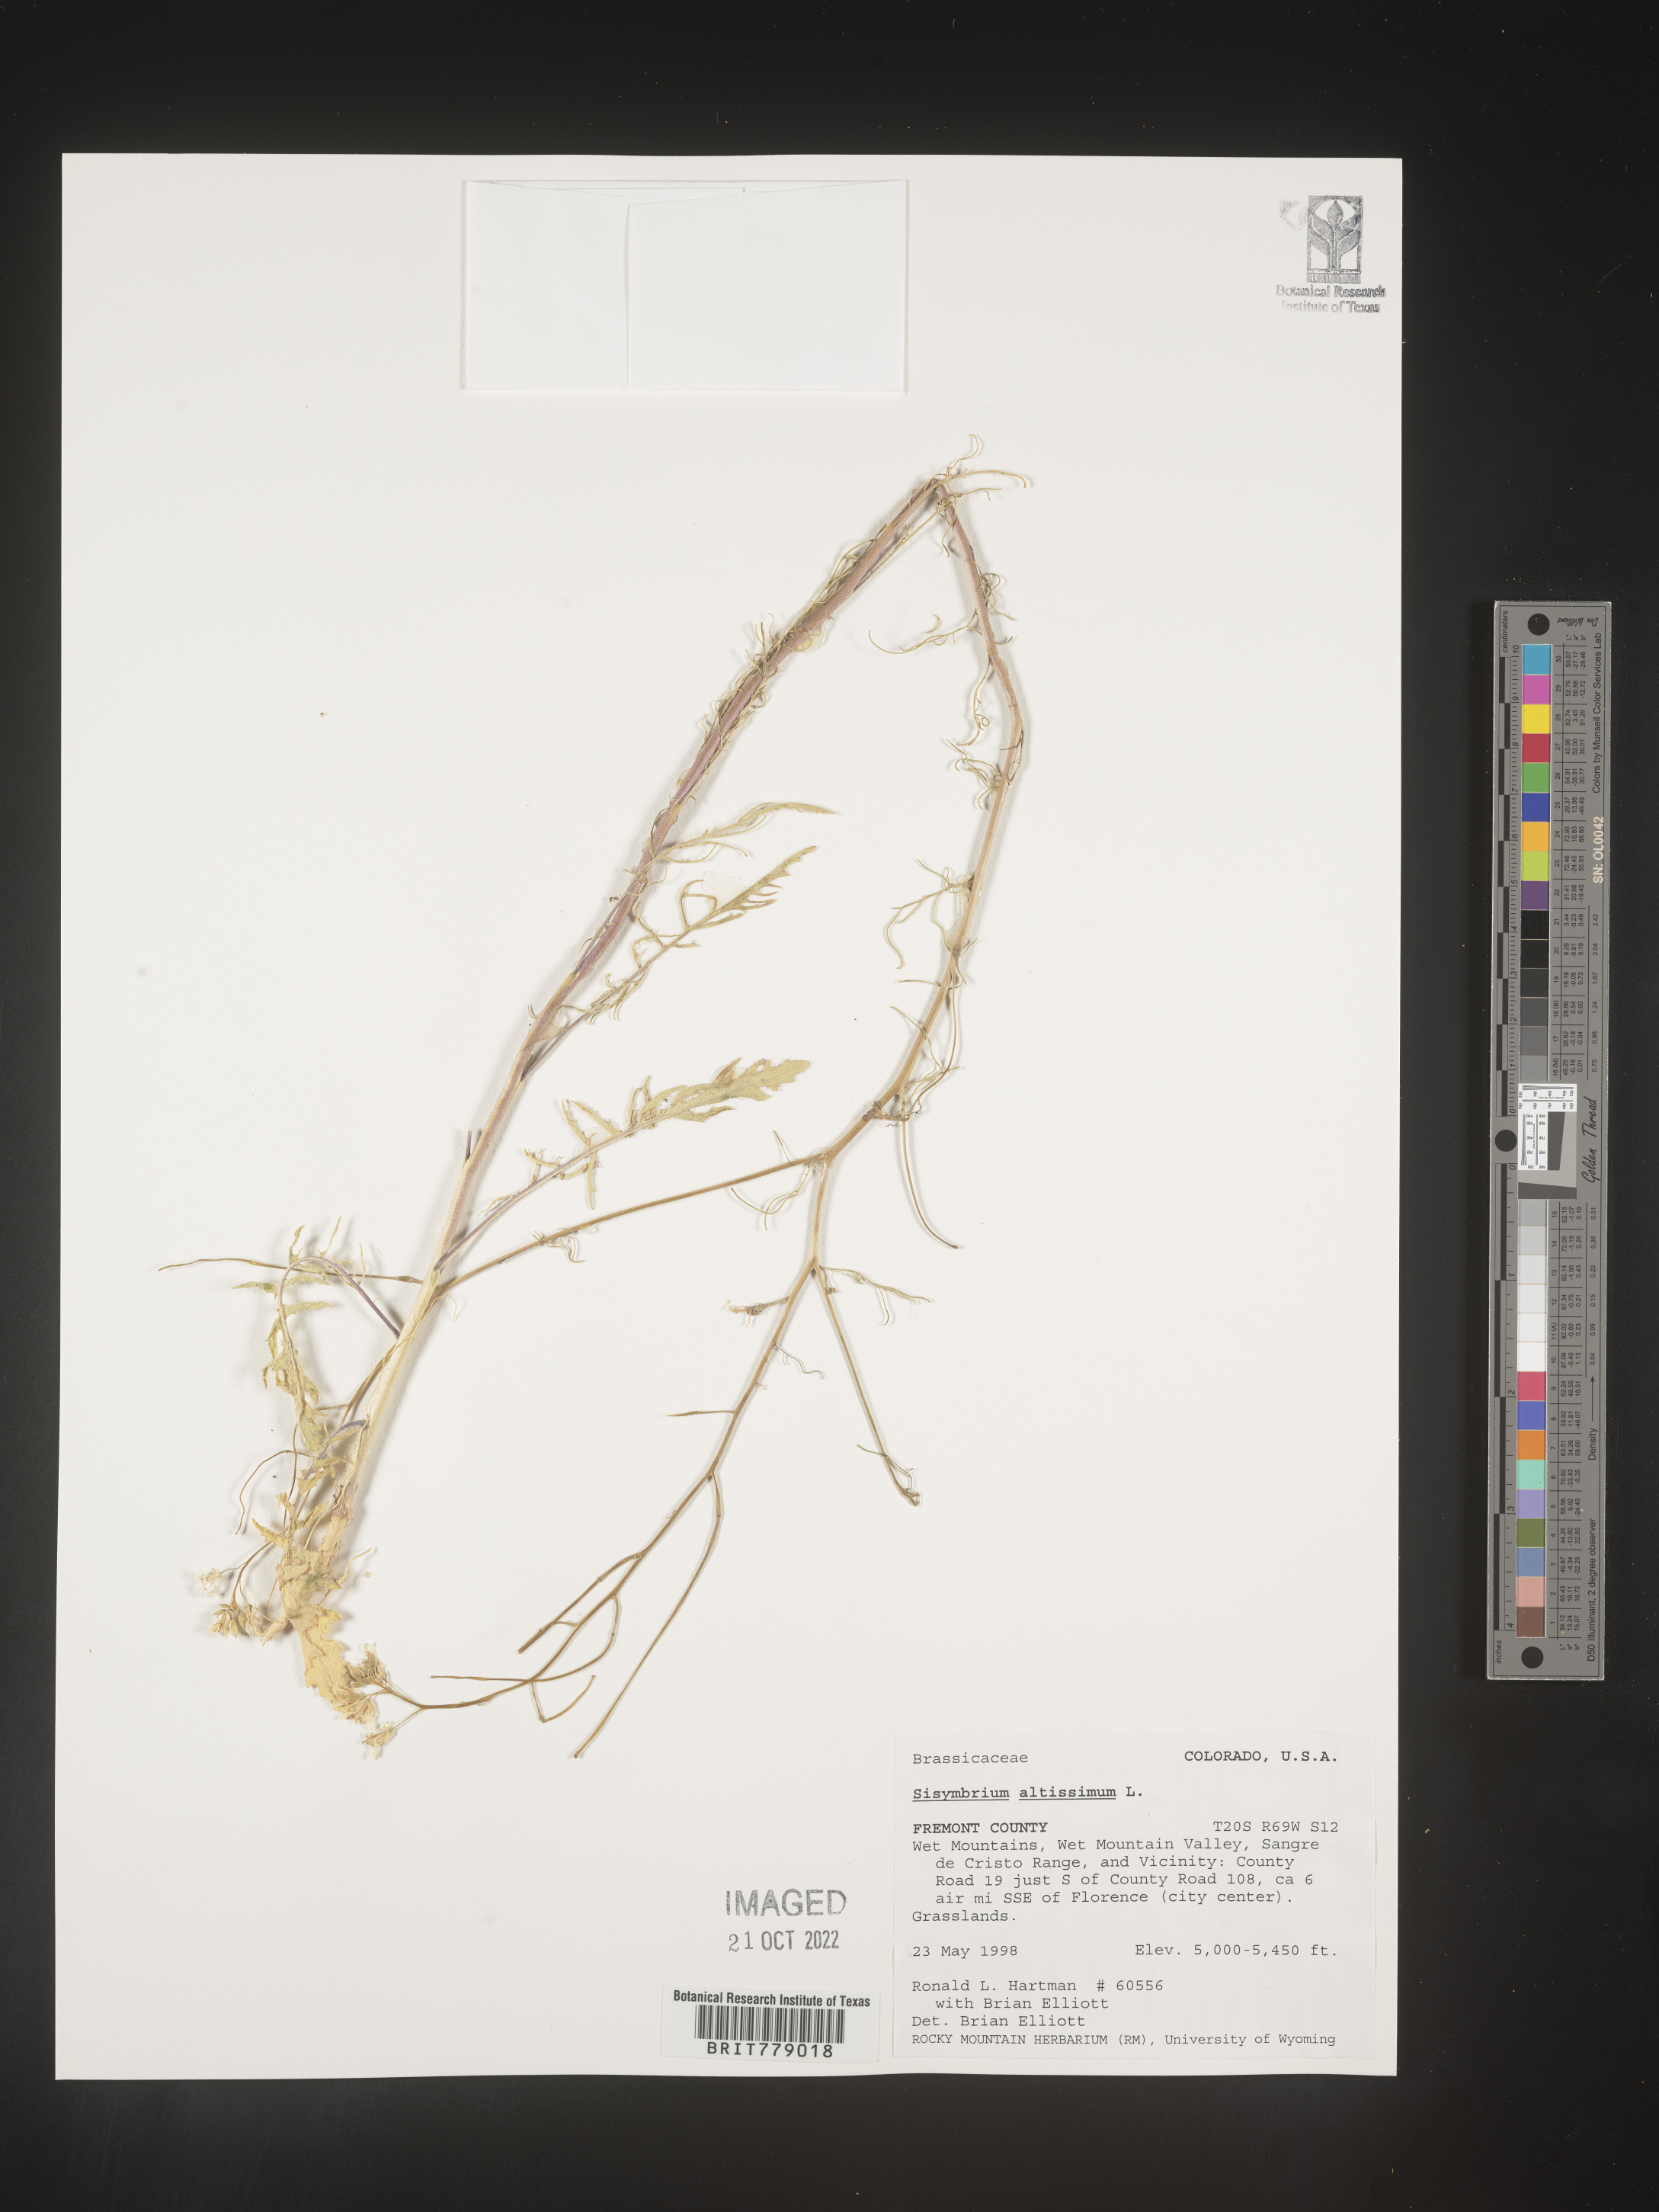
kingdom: Plantae
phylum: Tracheophyta
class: Magnoliopsida
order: Brassicales
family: Brassicaceae
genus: Sisymbrium
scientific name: Sisymbrium altissimum
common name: Tall rocket
